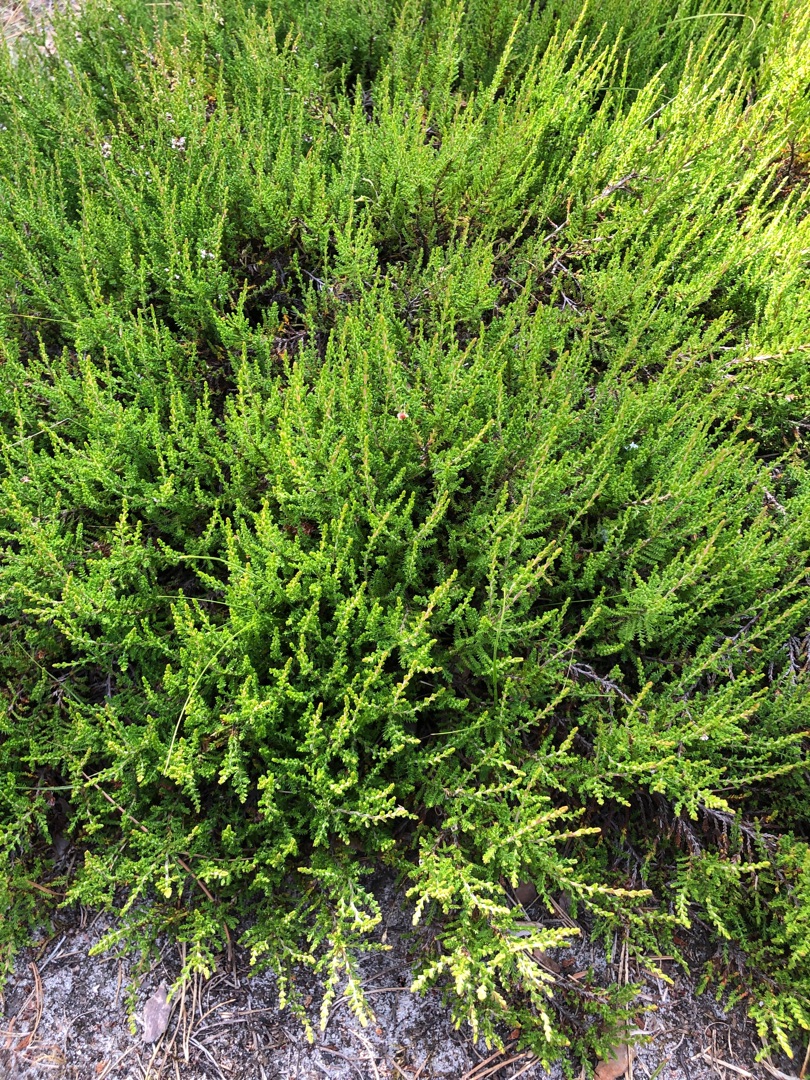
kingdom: Plantae
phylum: Tracheophyta
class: Magnoliopsida
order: Ericales
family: Ericaceae
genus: Calluna
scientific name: Calluna vulgaris
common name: Hedelyng
